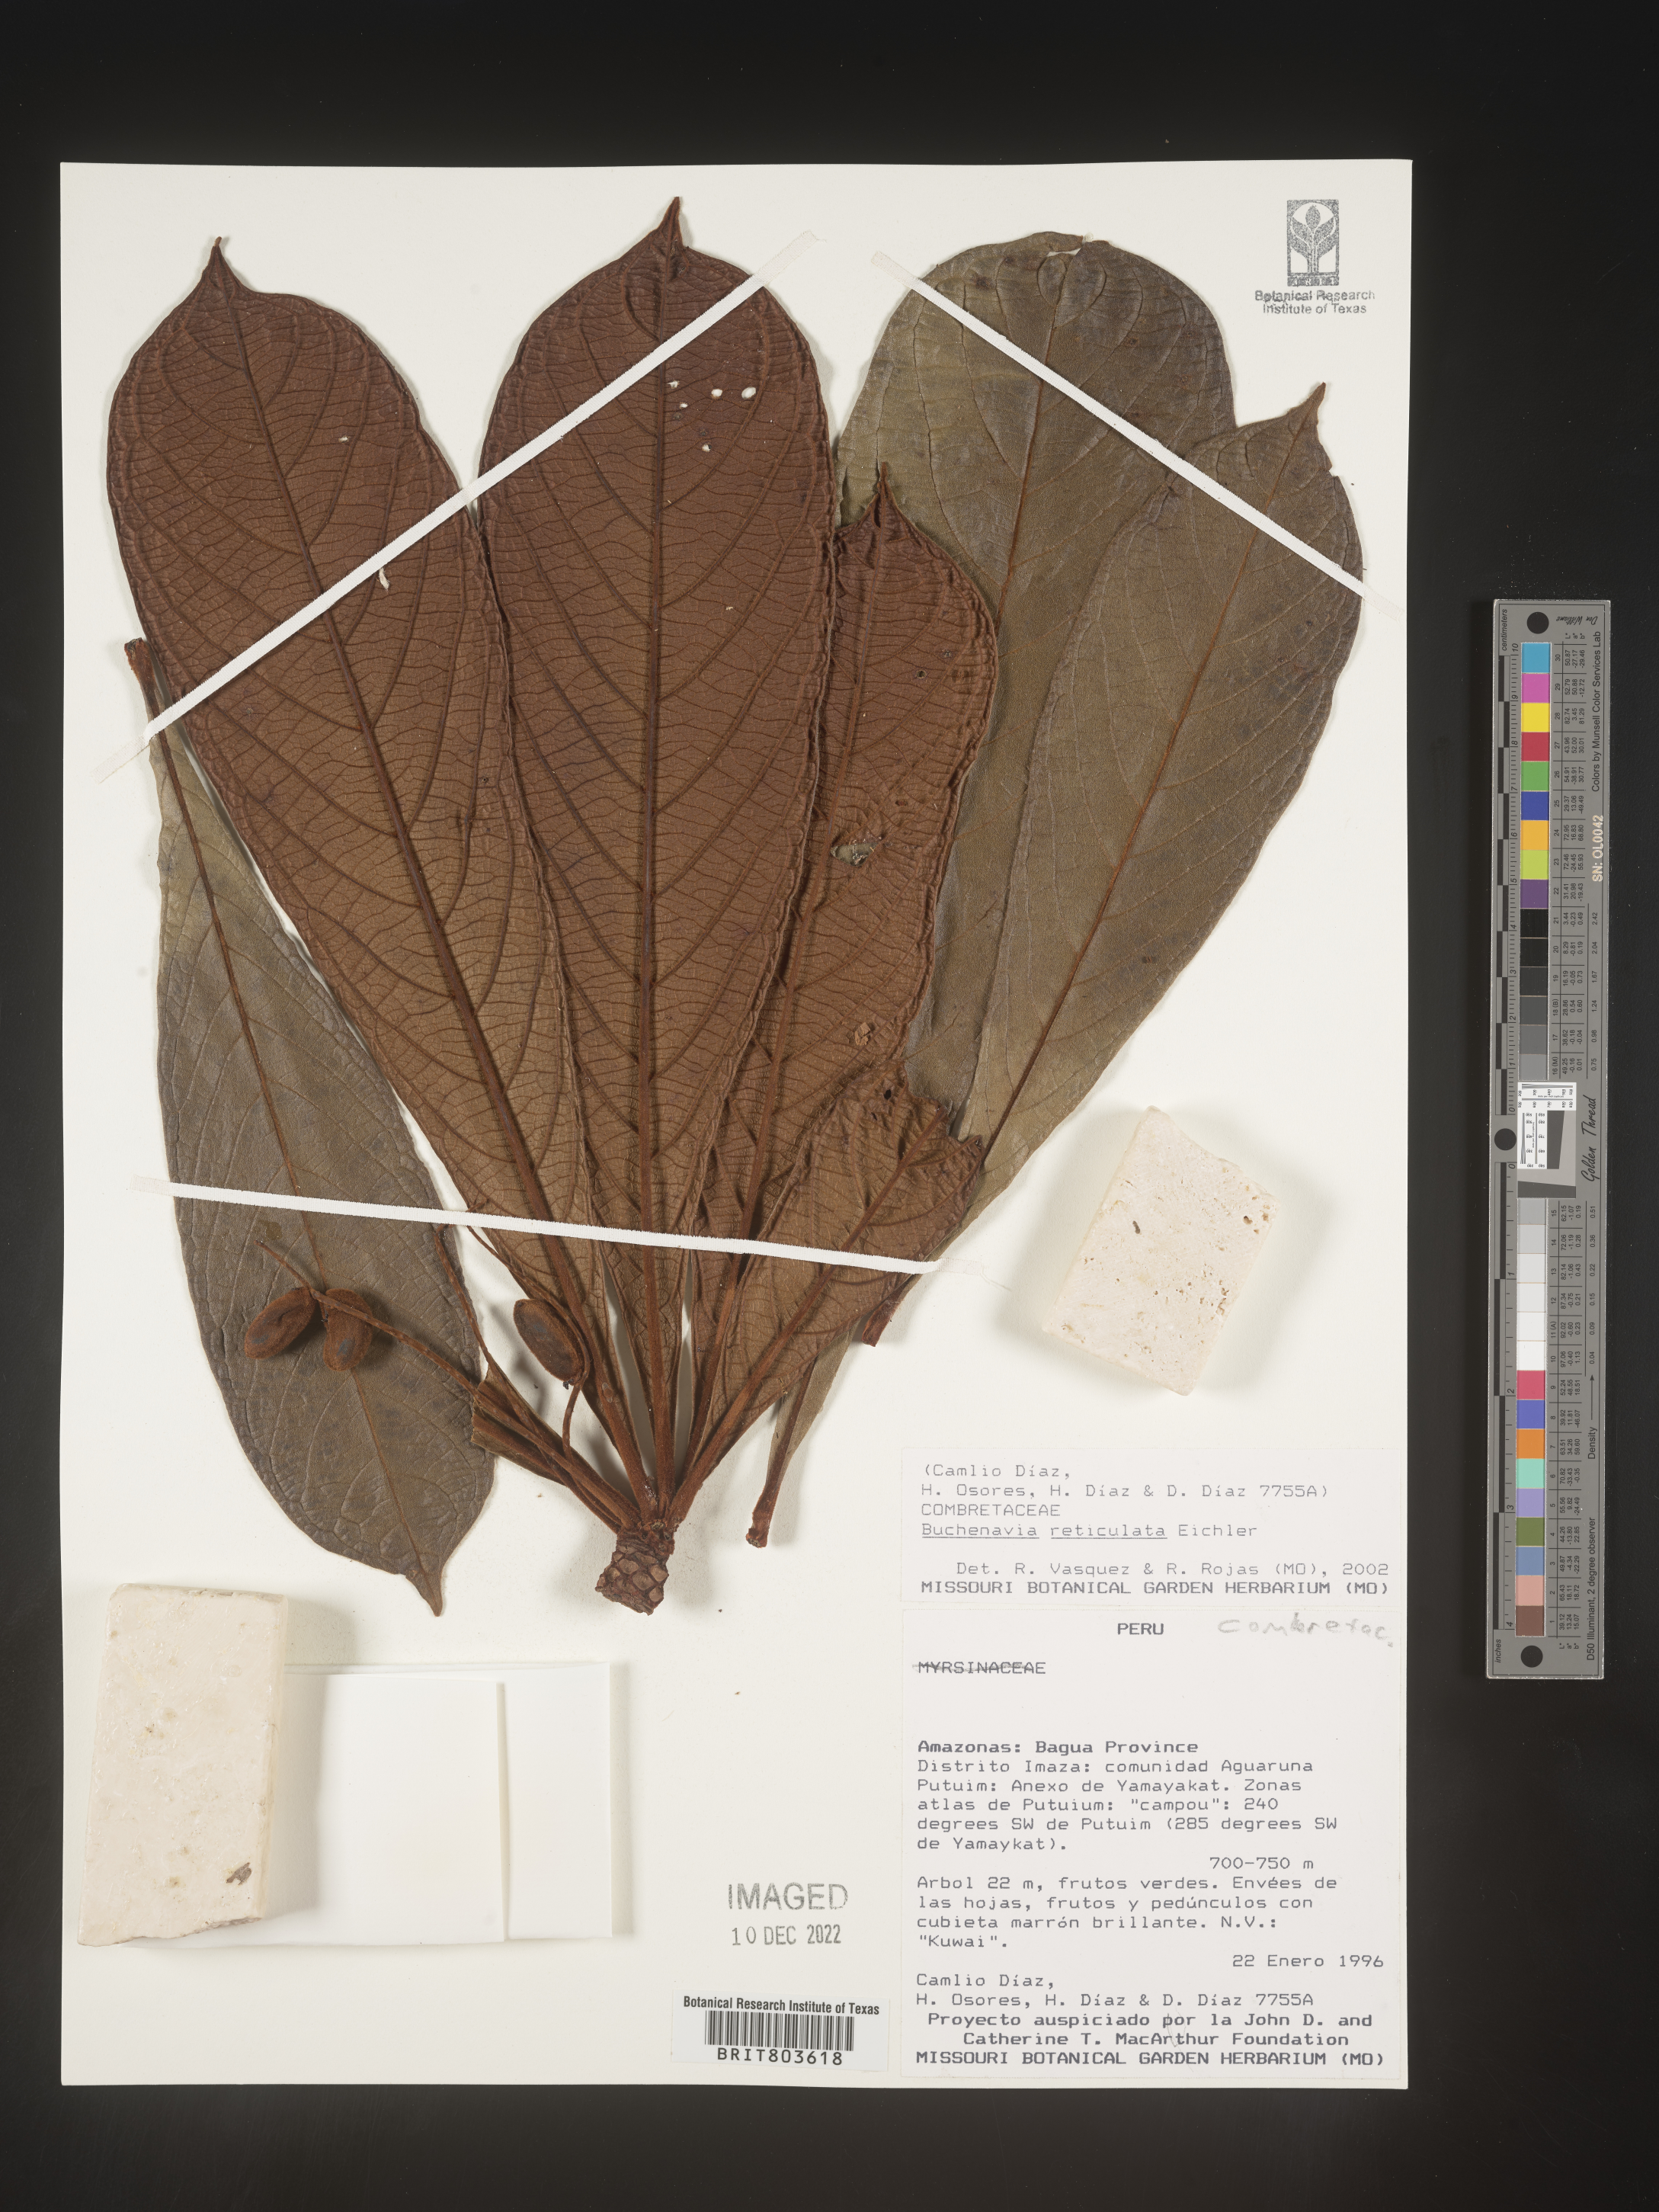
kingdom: Plantae
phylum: Tracheophyta
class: Magnoliopsida
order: Myrtales
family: Combretaceae
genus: Terminalia
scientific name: Terminalia
